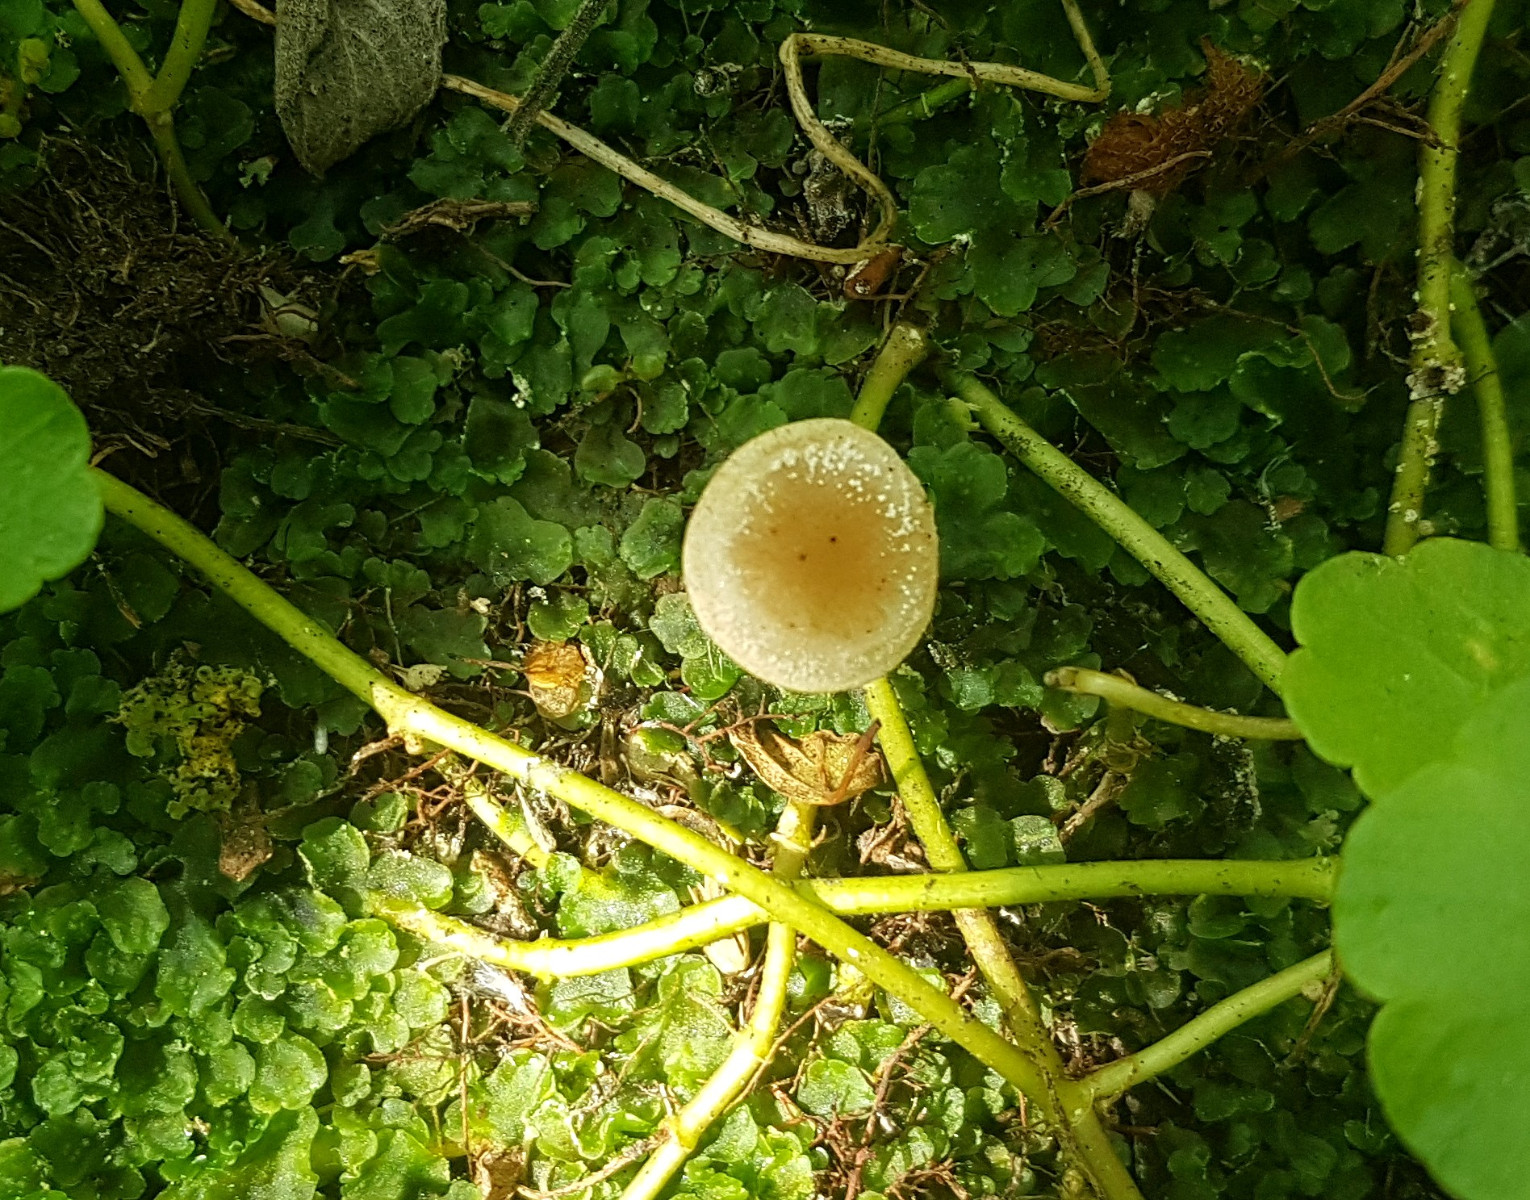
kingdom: Fungi
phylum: Basidiomycota
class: Agaricomycetes
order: Agaricales
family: Hymenogastraceae
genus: Naucoria
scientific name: Naucoria
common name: knaphat
